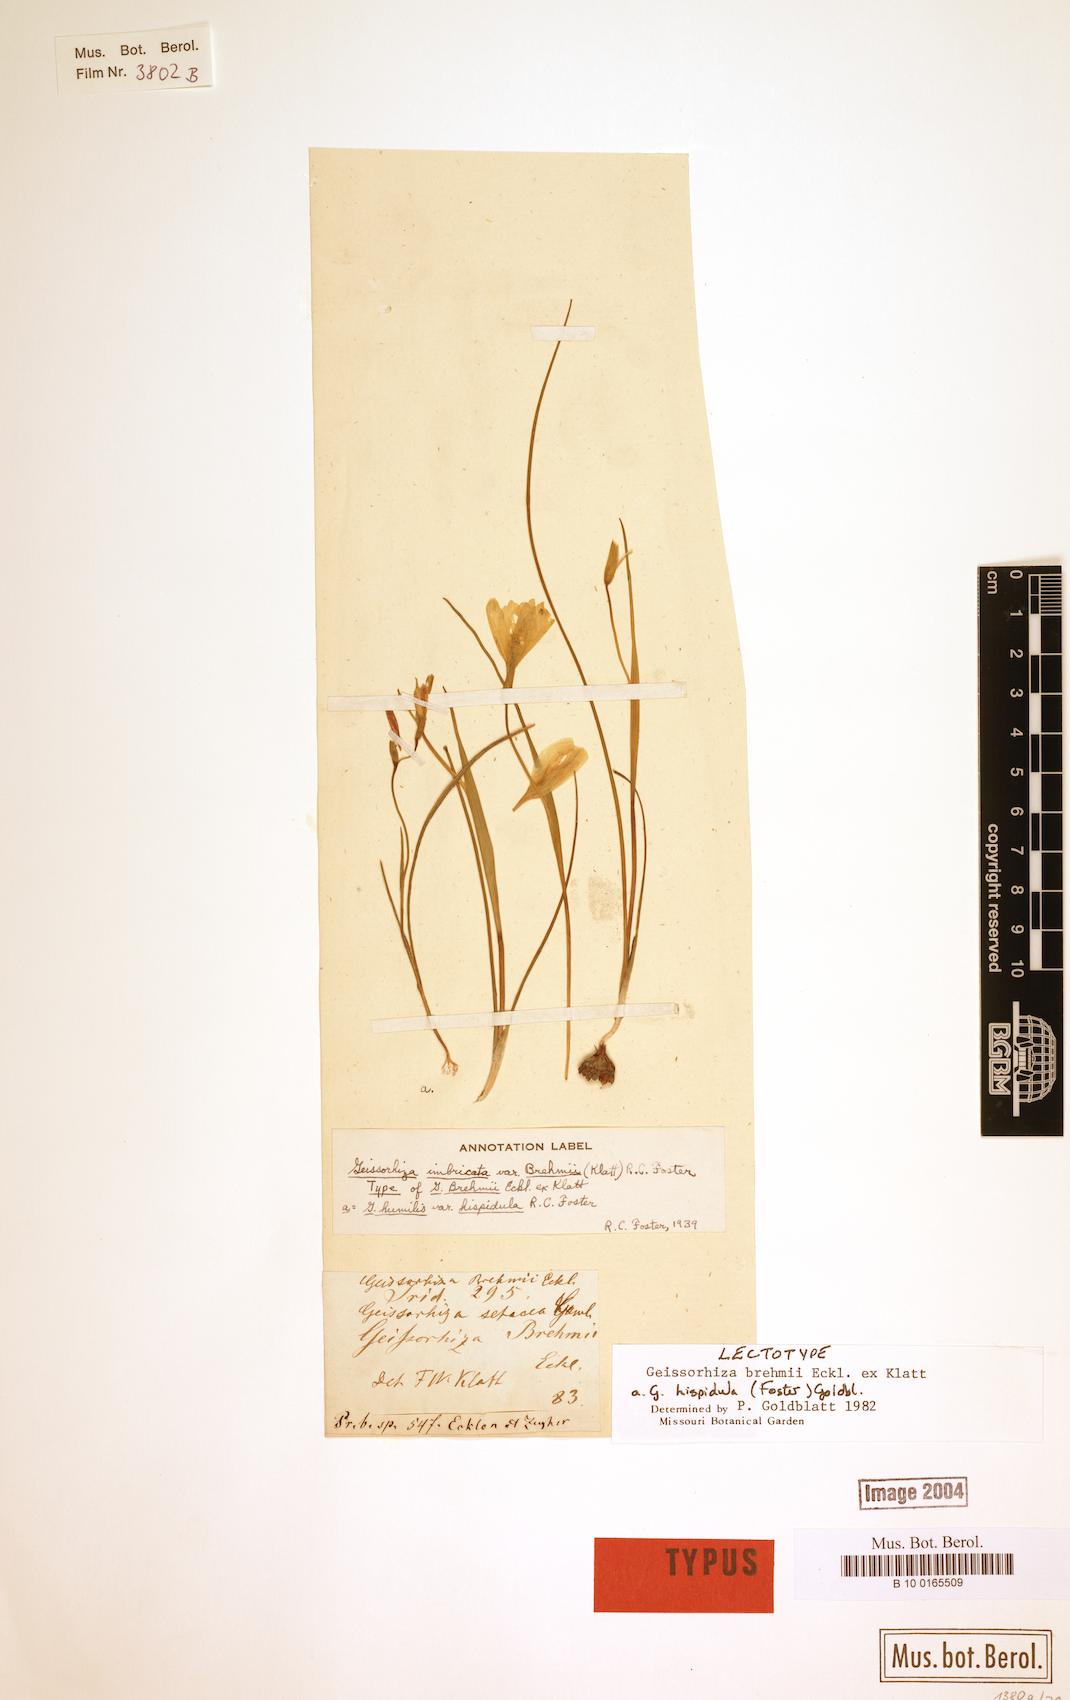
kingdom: Plantae
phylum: Tracheophyta
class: Liliopsida
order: Asparagales
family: Iridaceae
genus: Geissorhiza
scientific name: Geissorhiza brehmii
